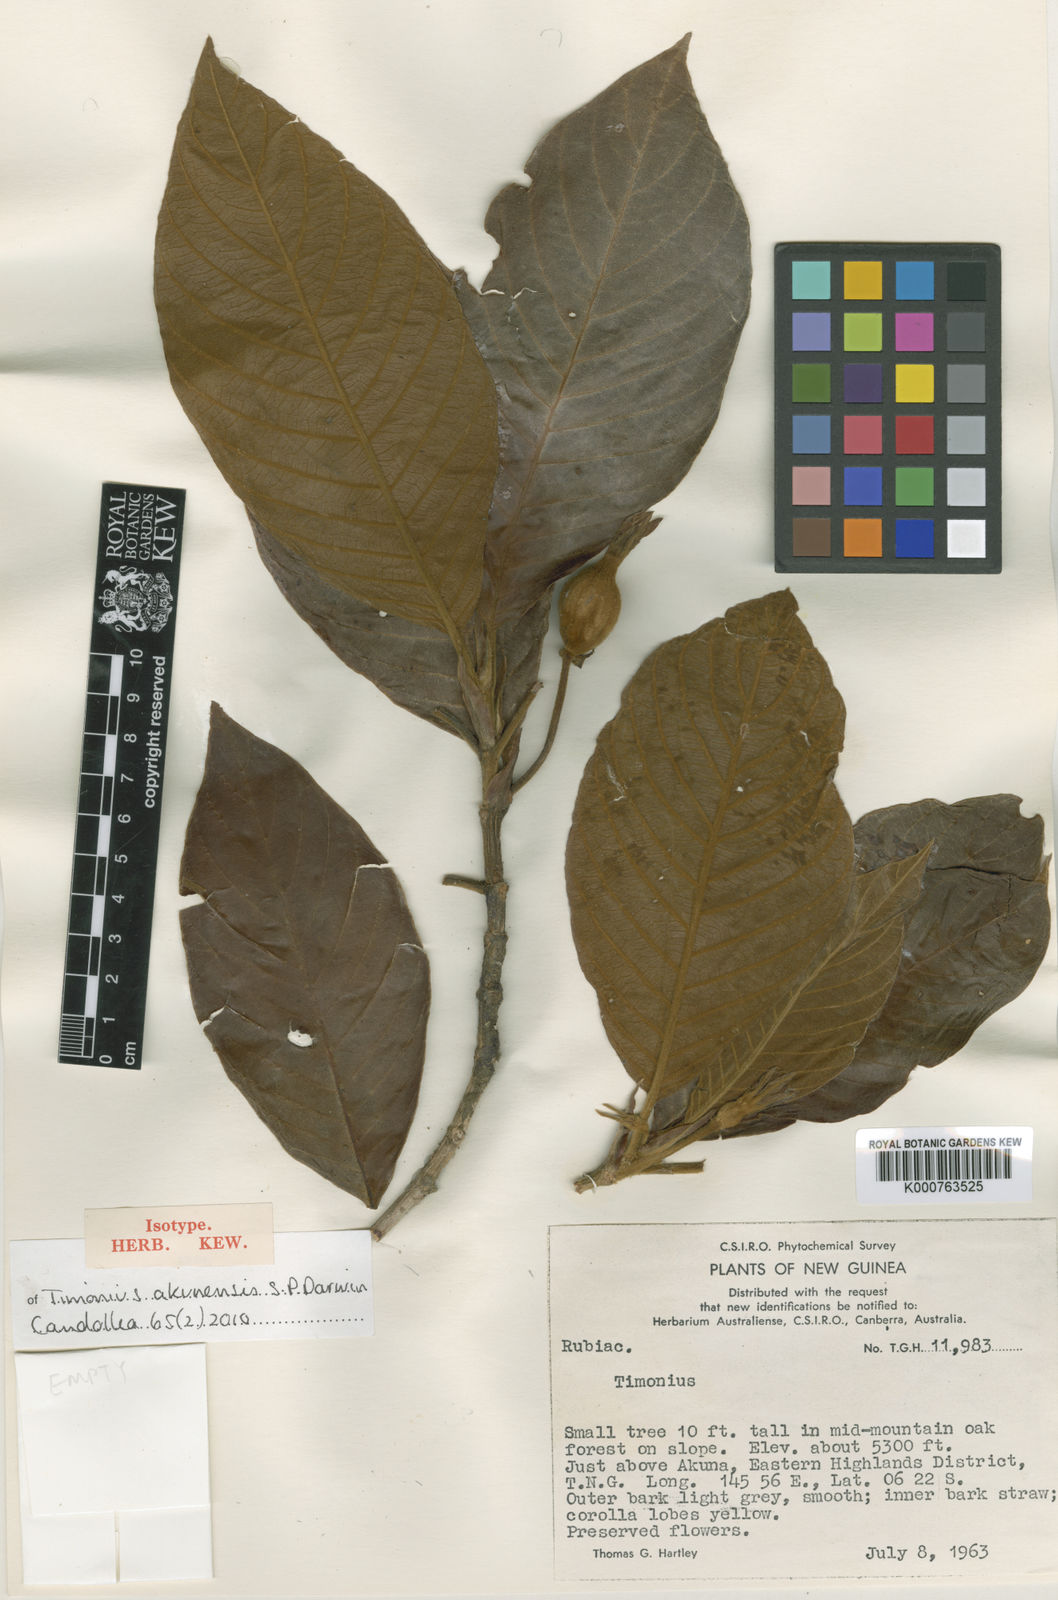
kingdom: Plantae
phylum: Tracheophyta
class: Magnoliopsida
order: Gentianales
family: Rubiaceae
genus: Timonius
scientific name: Timonius akunensis
